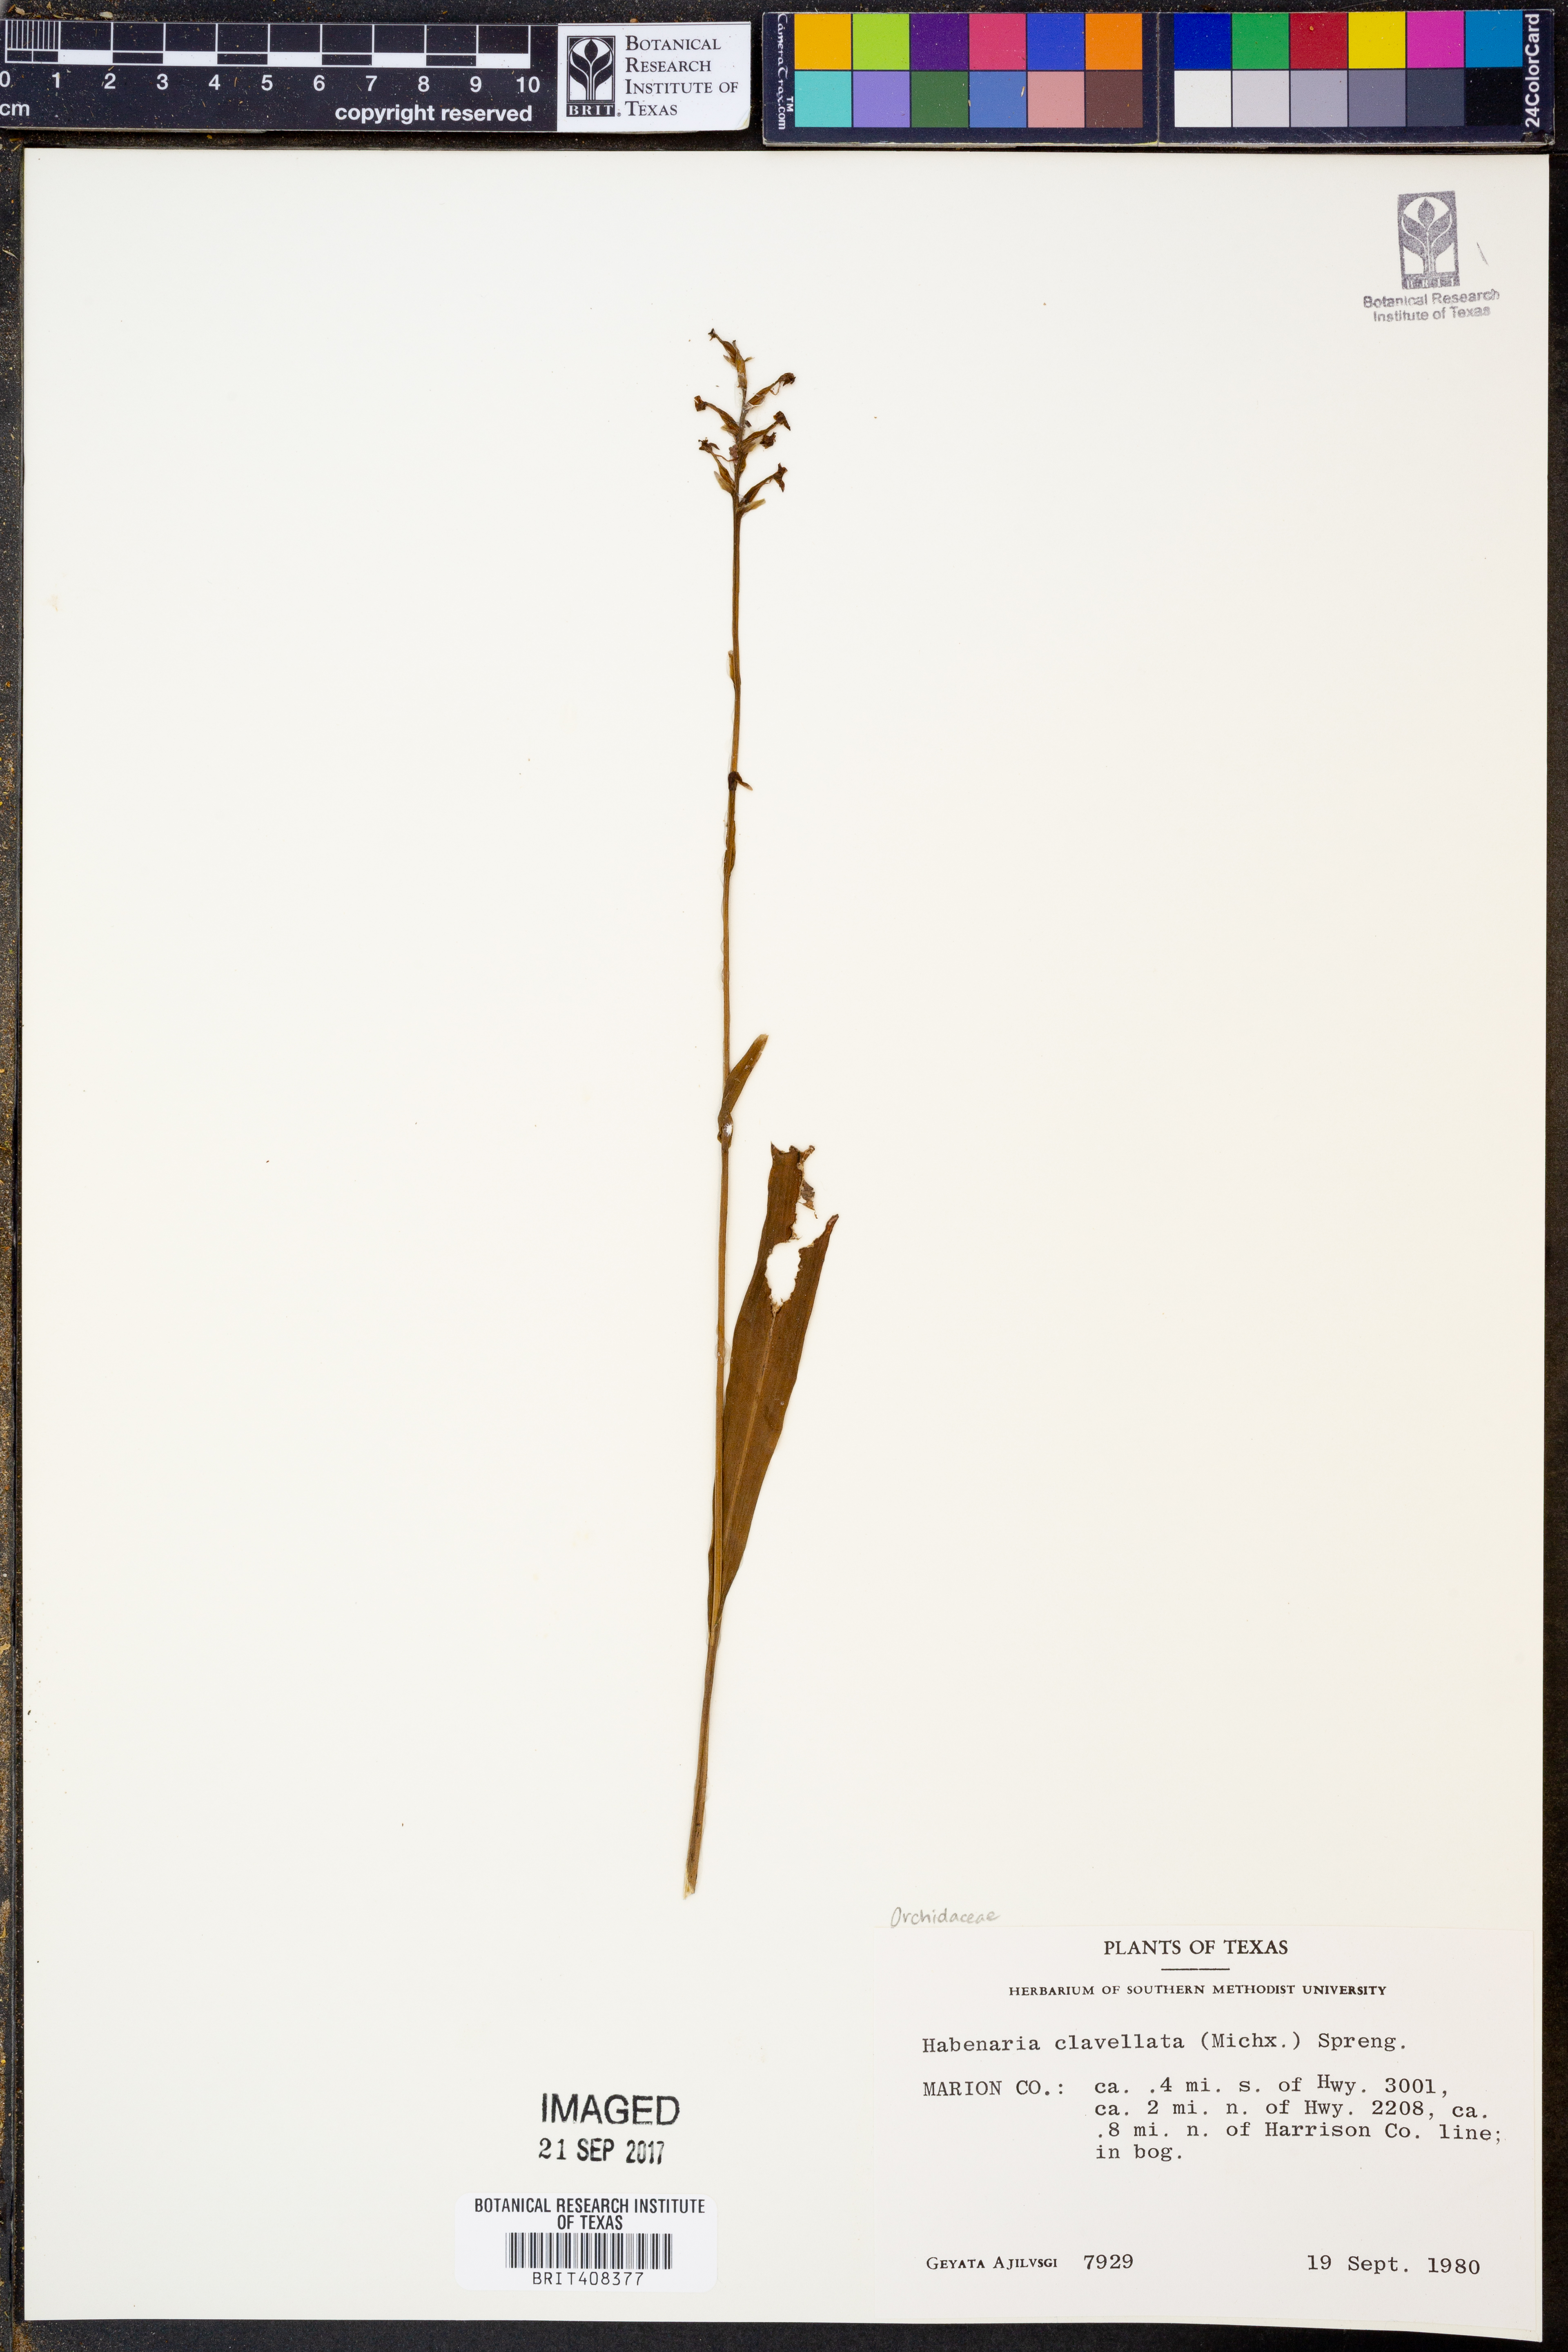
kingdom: Plantae
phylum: Tracheophyta
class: Liliopsida
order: Asparagales
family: Orchidaceae
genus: Platanthera
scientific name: Platanthera clavellata
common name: Club-spur orchid
